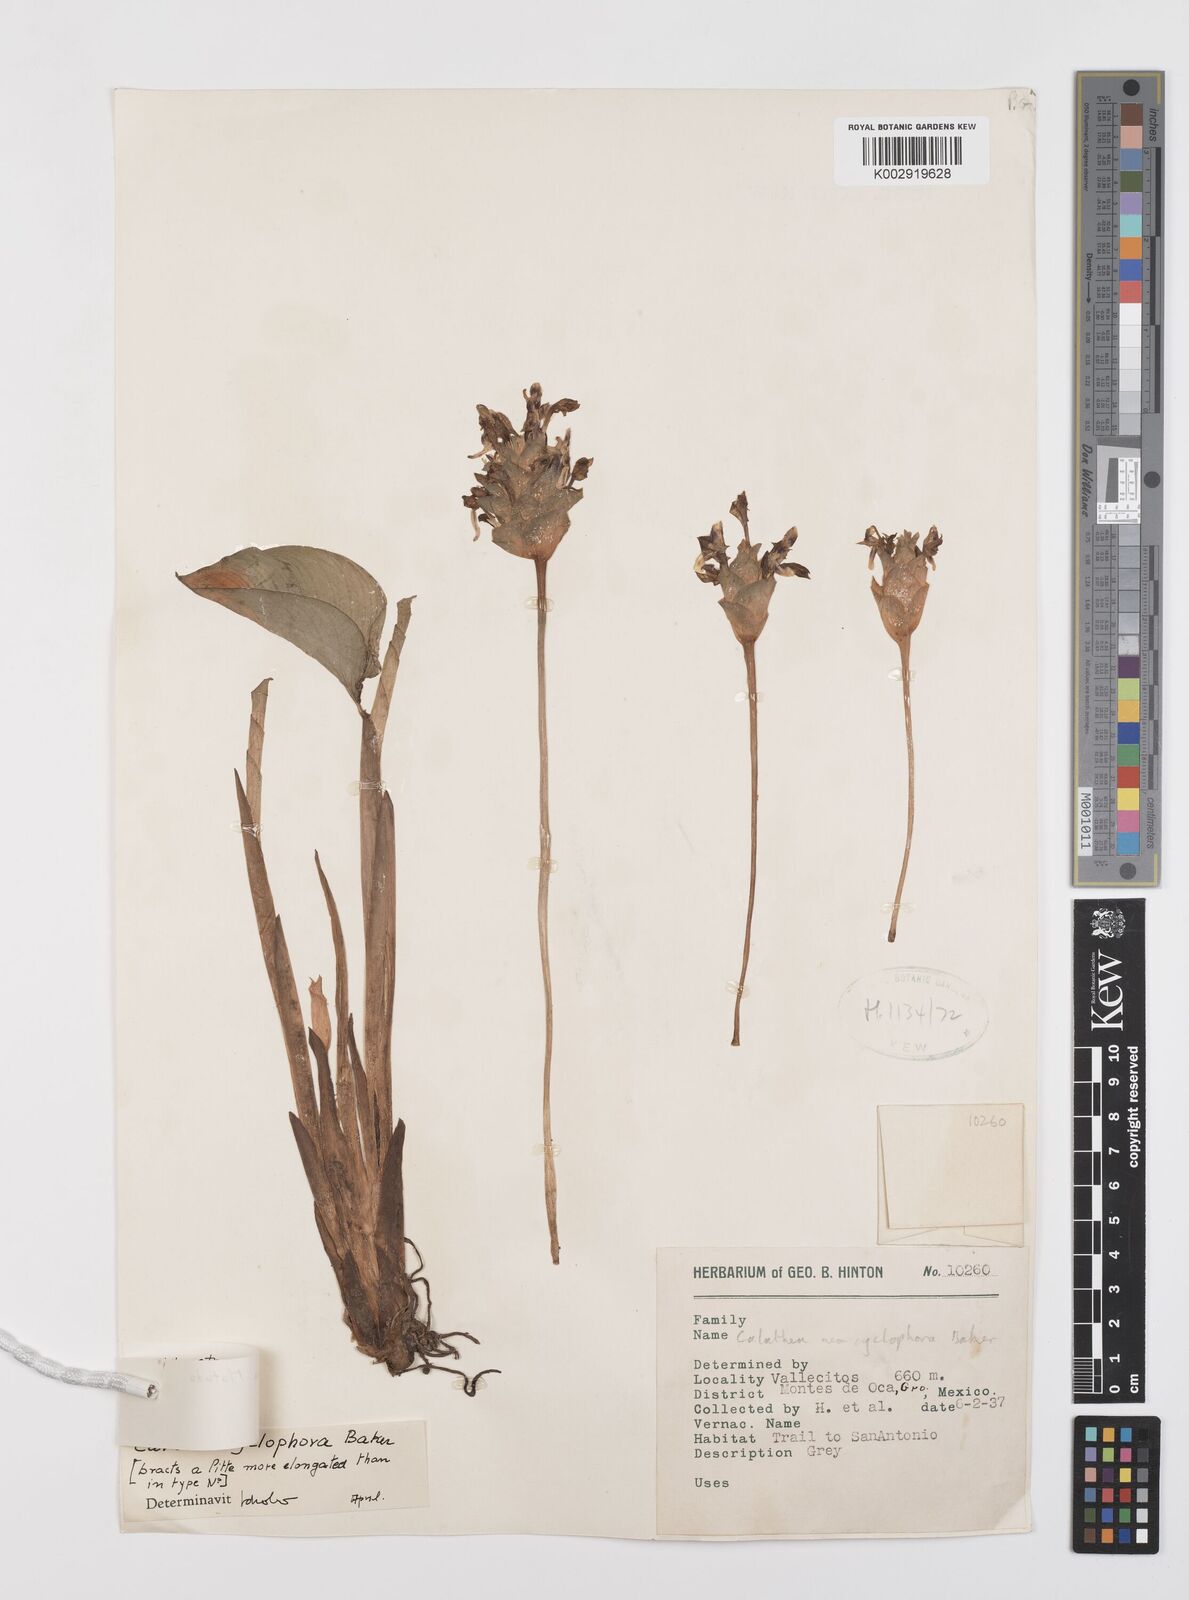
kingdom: Plantae
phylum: Tracheophyta
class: Liliopsida
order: Zingiberales
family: Marantaceae
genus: Goeppertia
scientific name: Goeppertia atropurpurea
